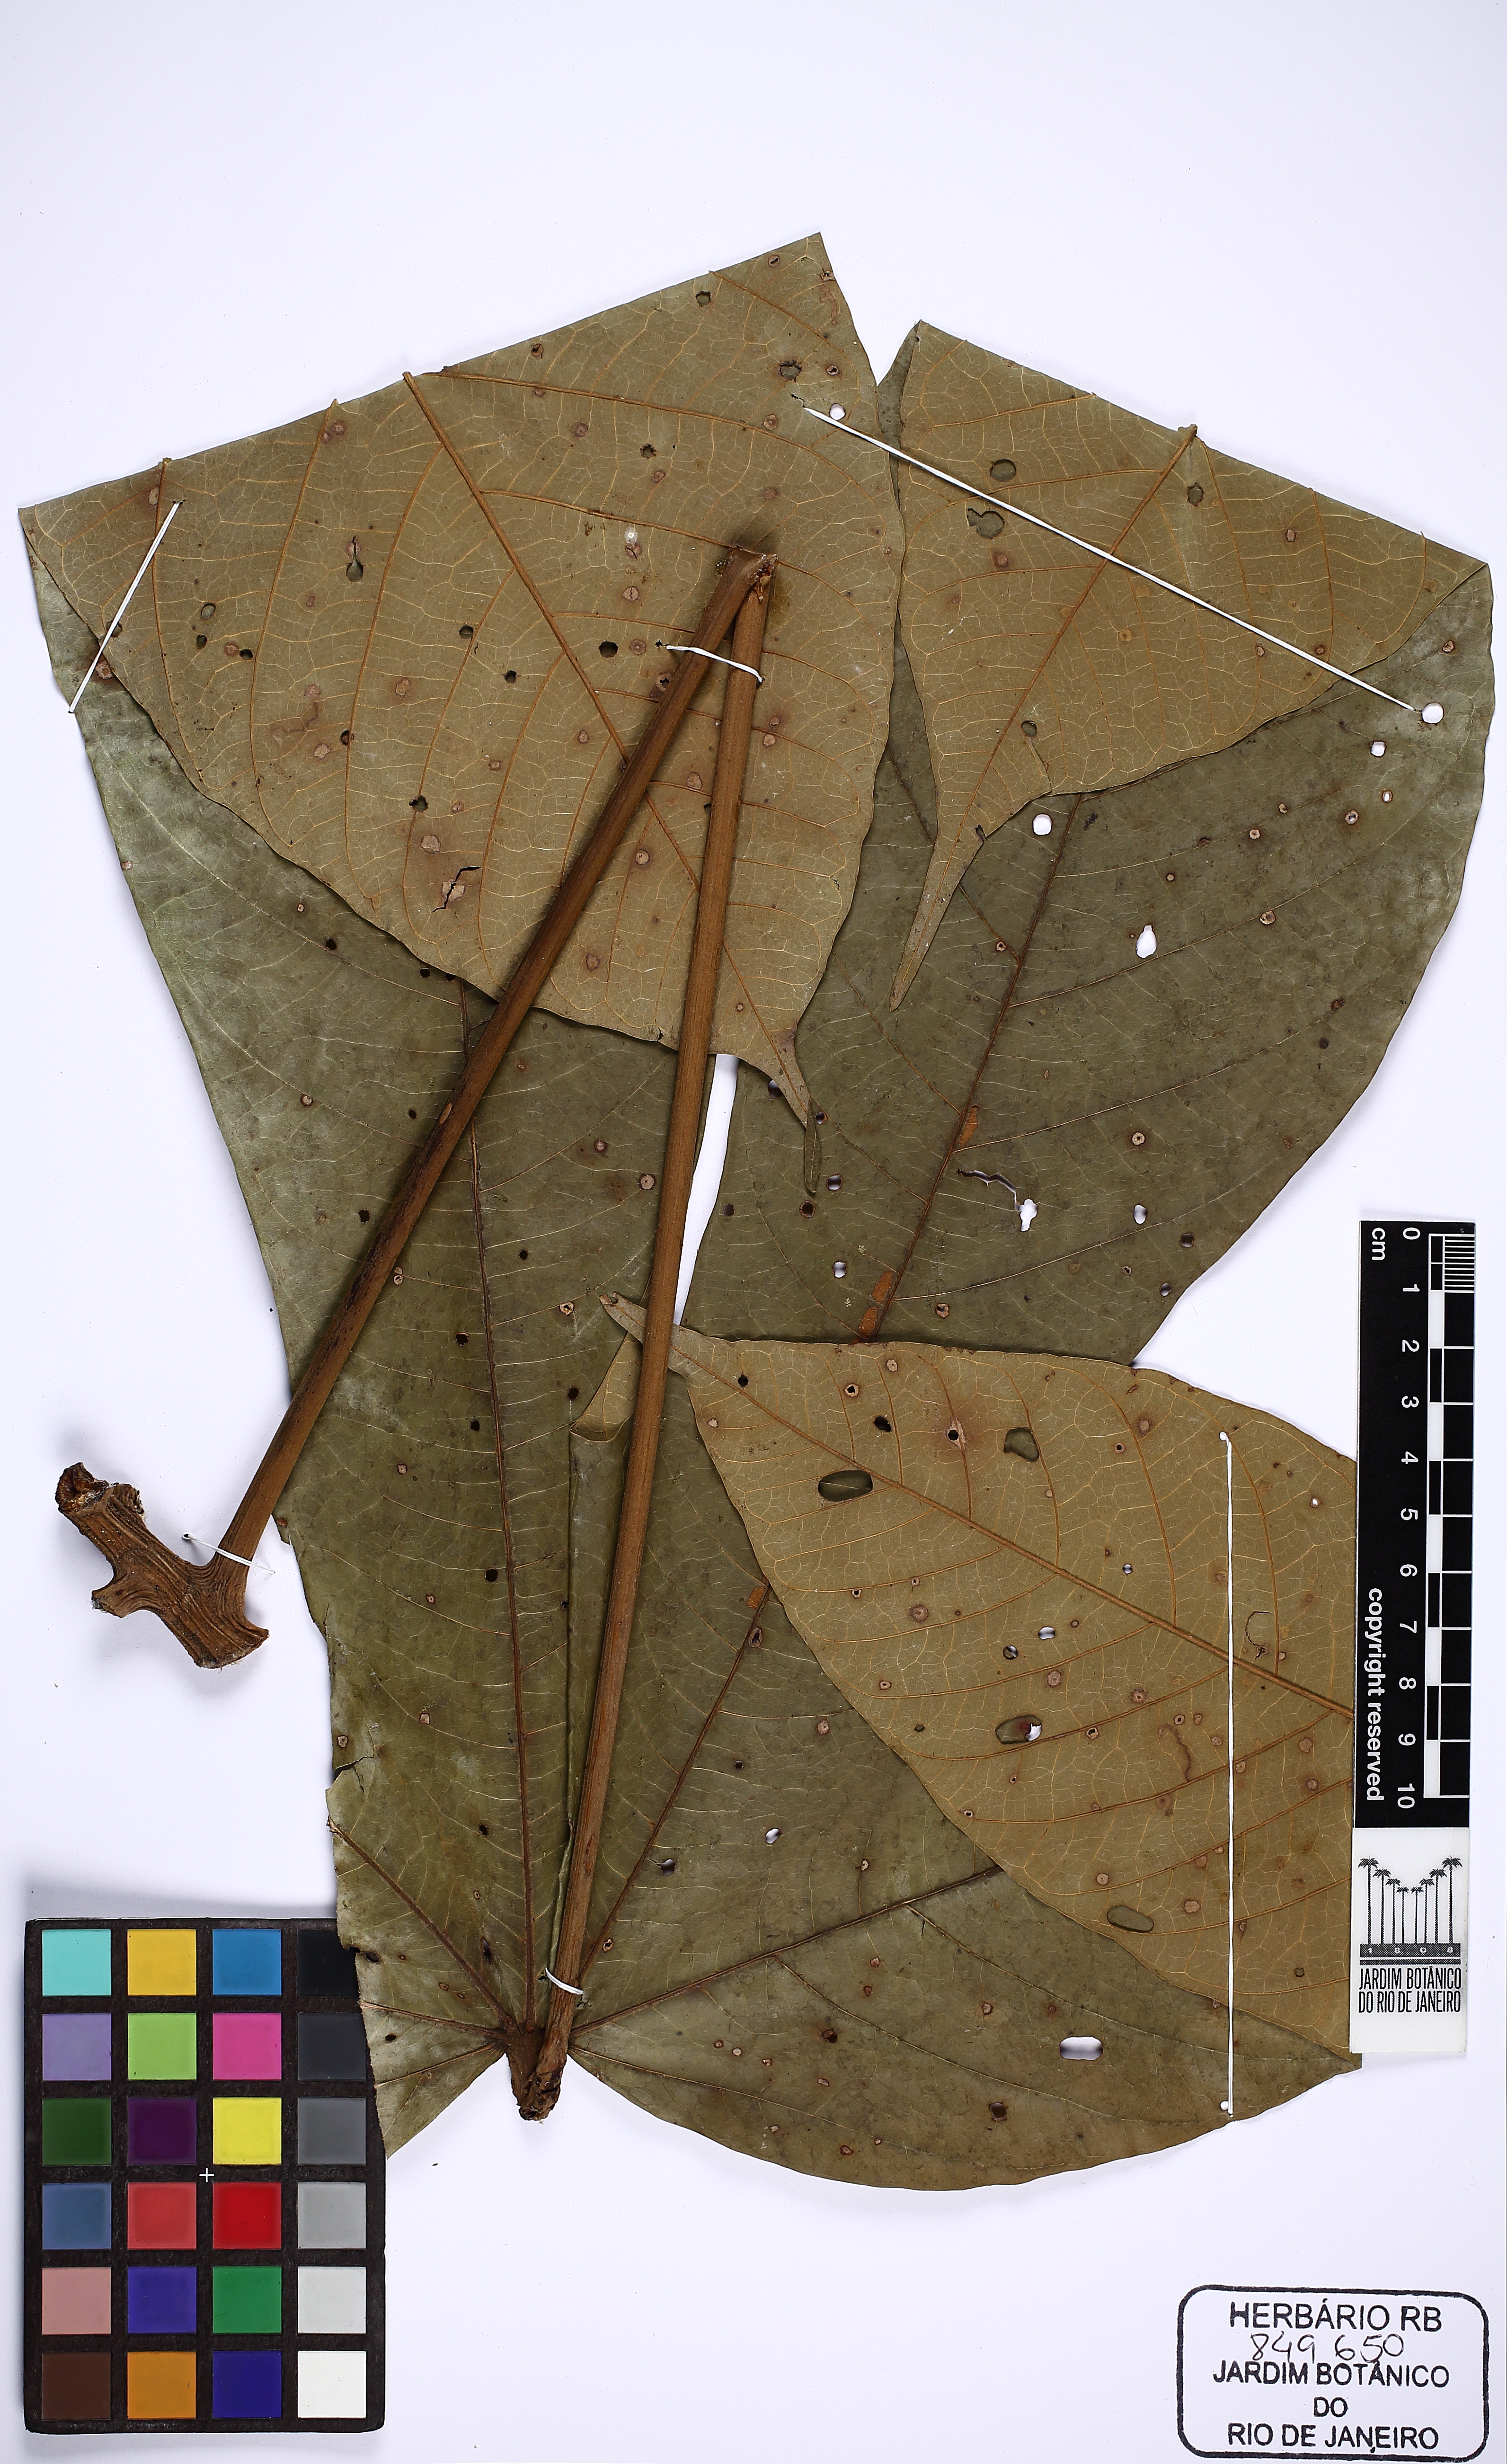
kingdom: Plantae
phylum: Tracheophyta
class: Magnoliopsida
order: Malvales
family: Malvaceae
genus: Sterculia
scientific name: Sterculia striata
